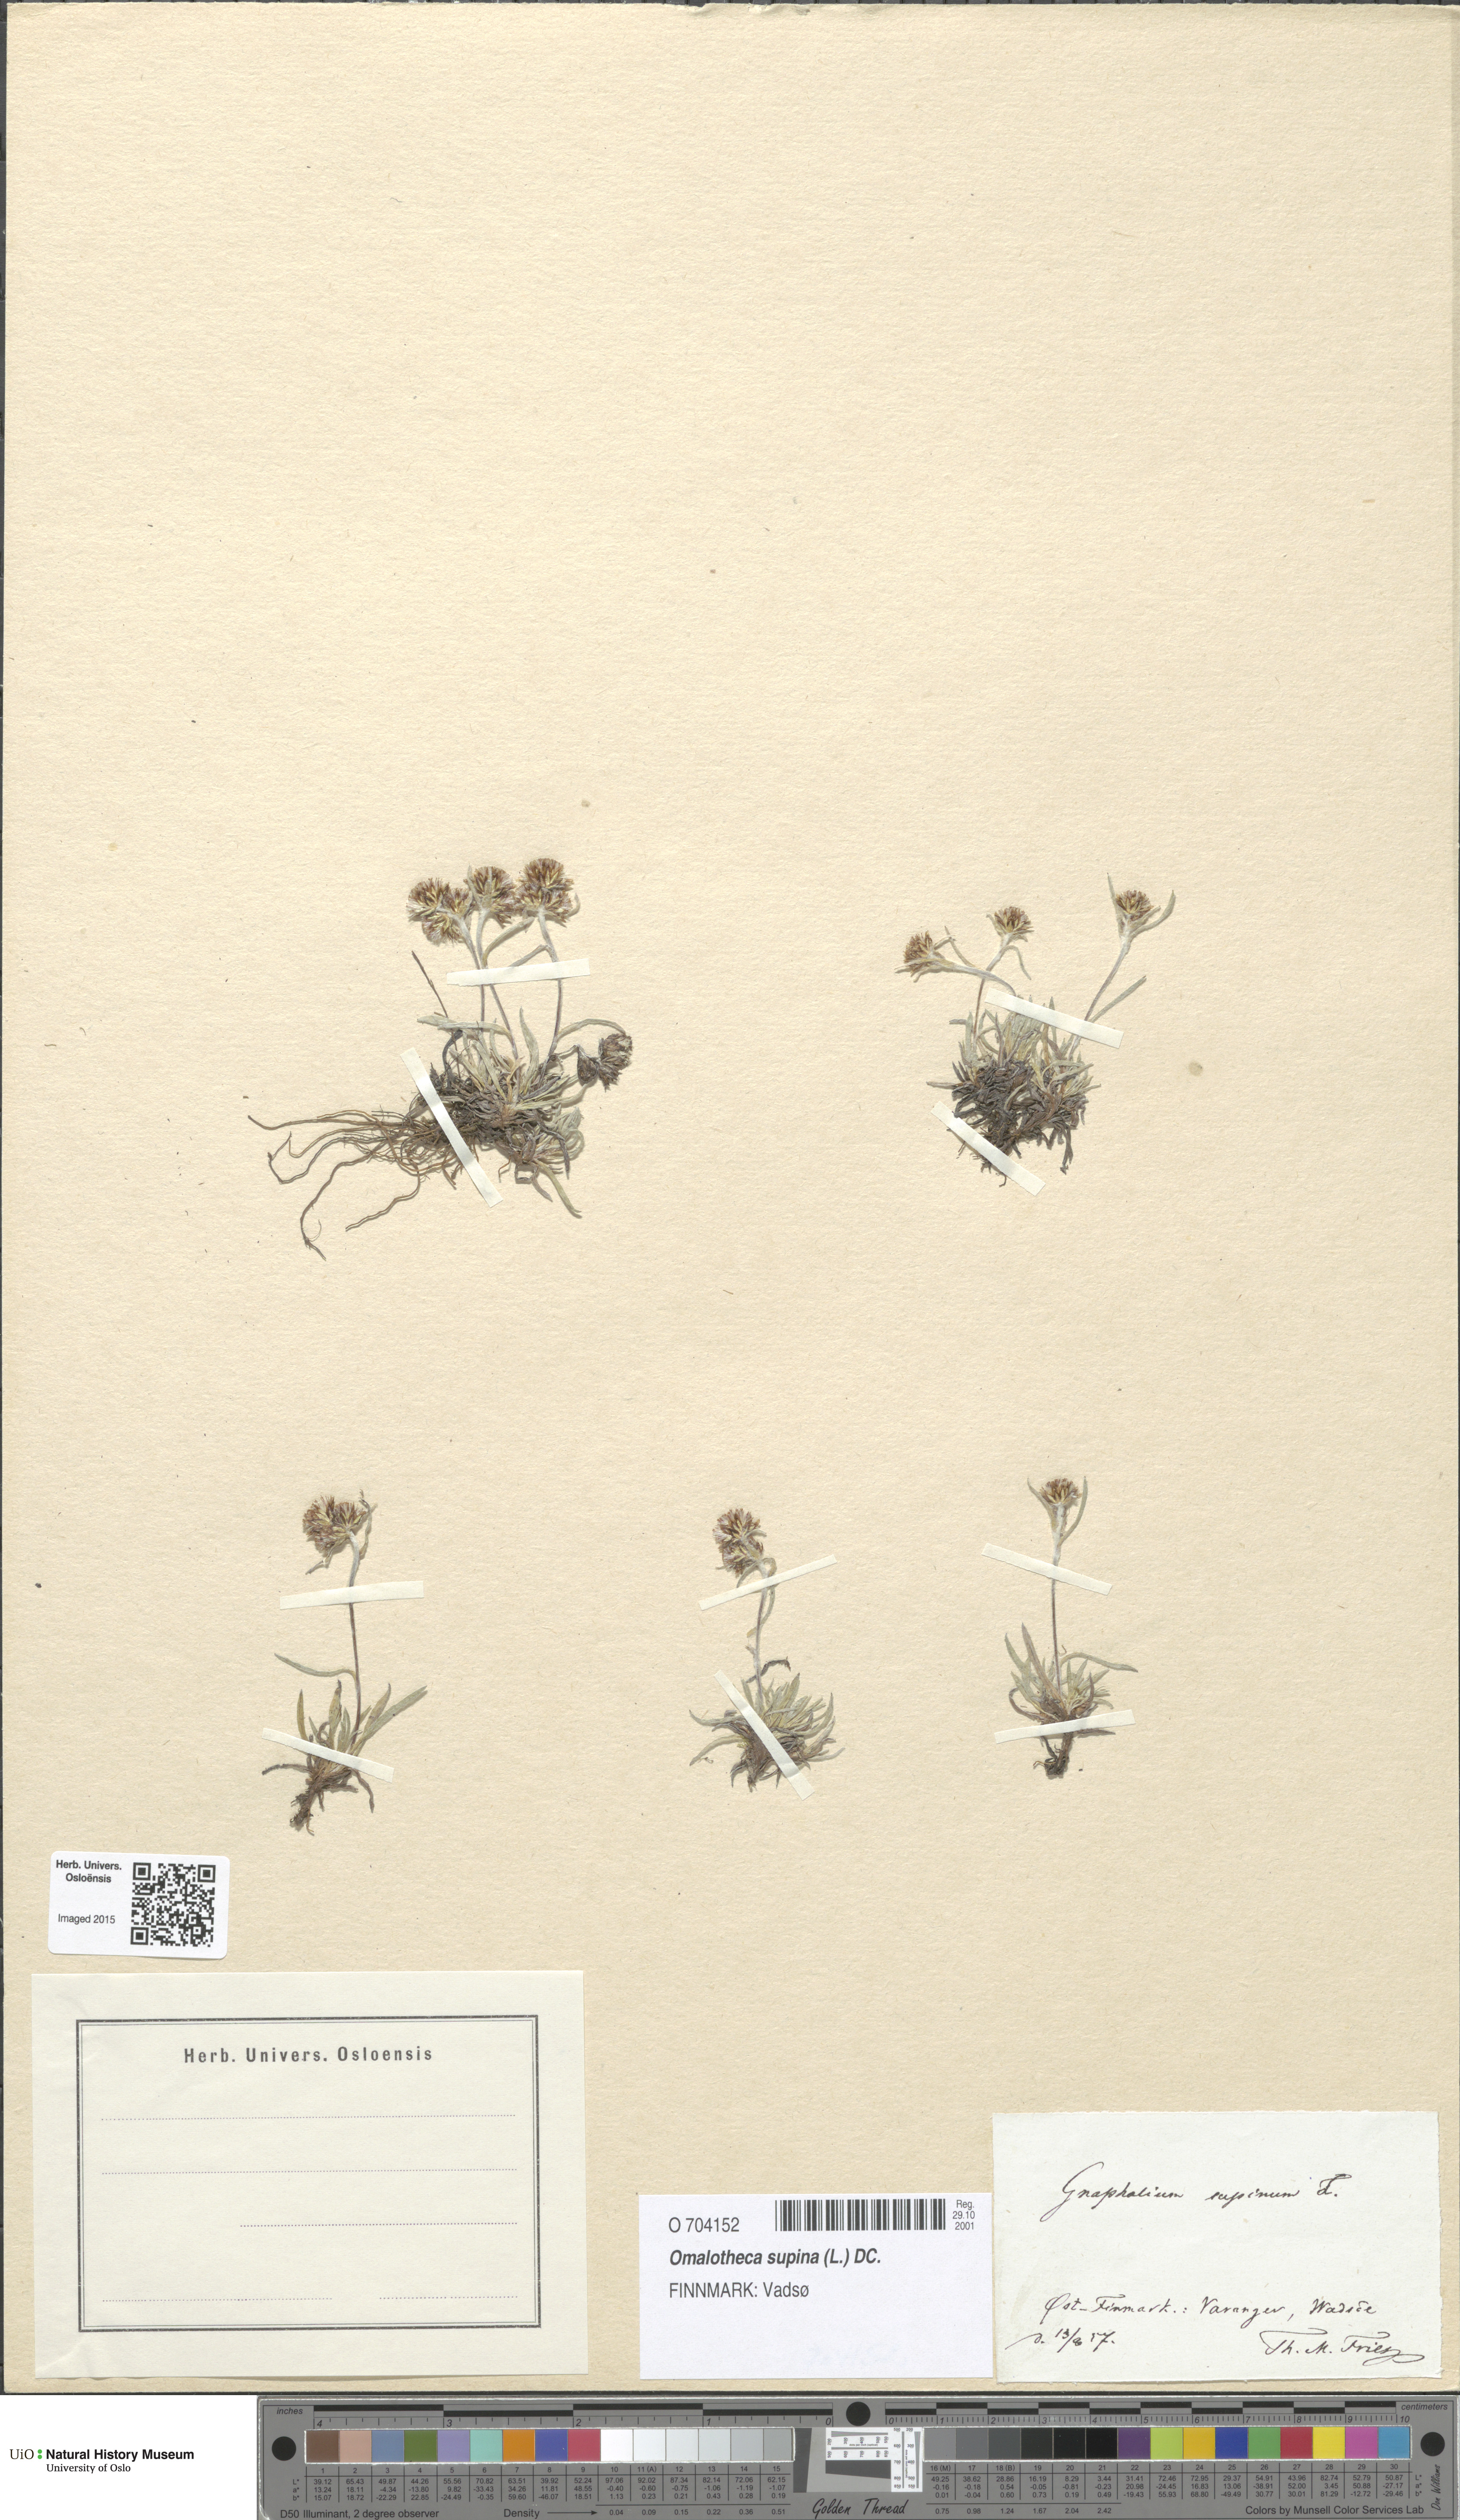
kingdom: Plantae
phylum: Tracheophyta
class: Magnoliopsida
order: Asterales
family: Asteraceae
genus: Omalotheca
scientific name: Omalotheca supina
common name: Alpine arctic-cudweed
